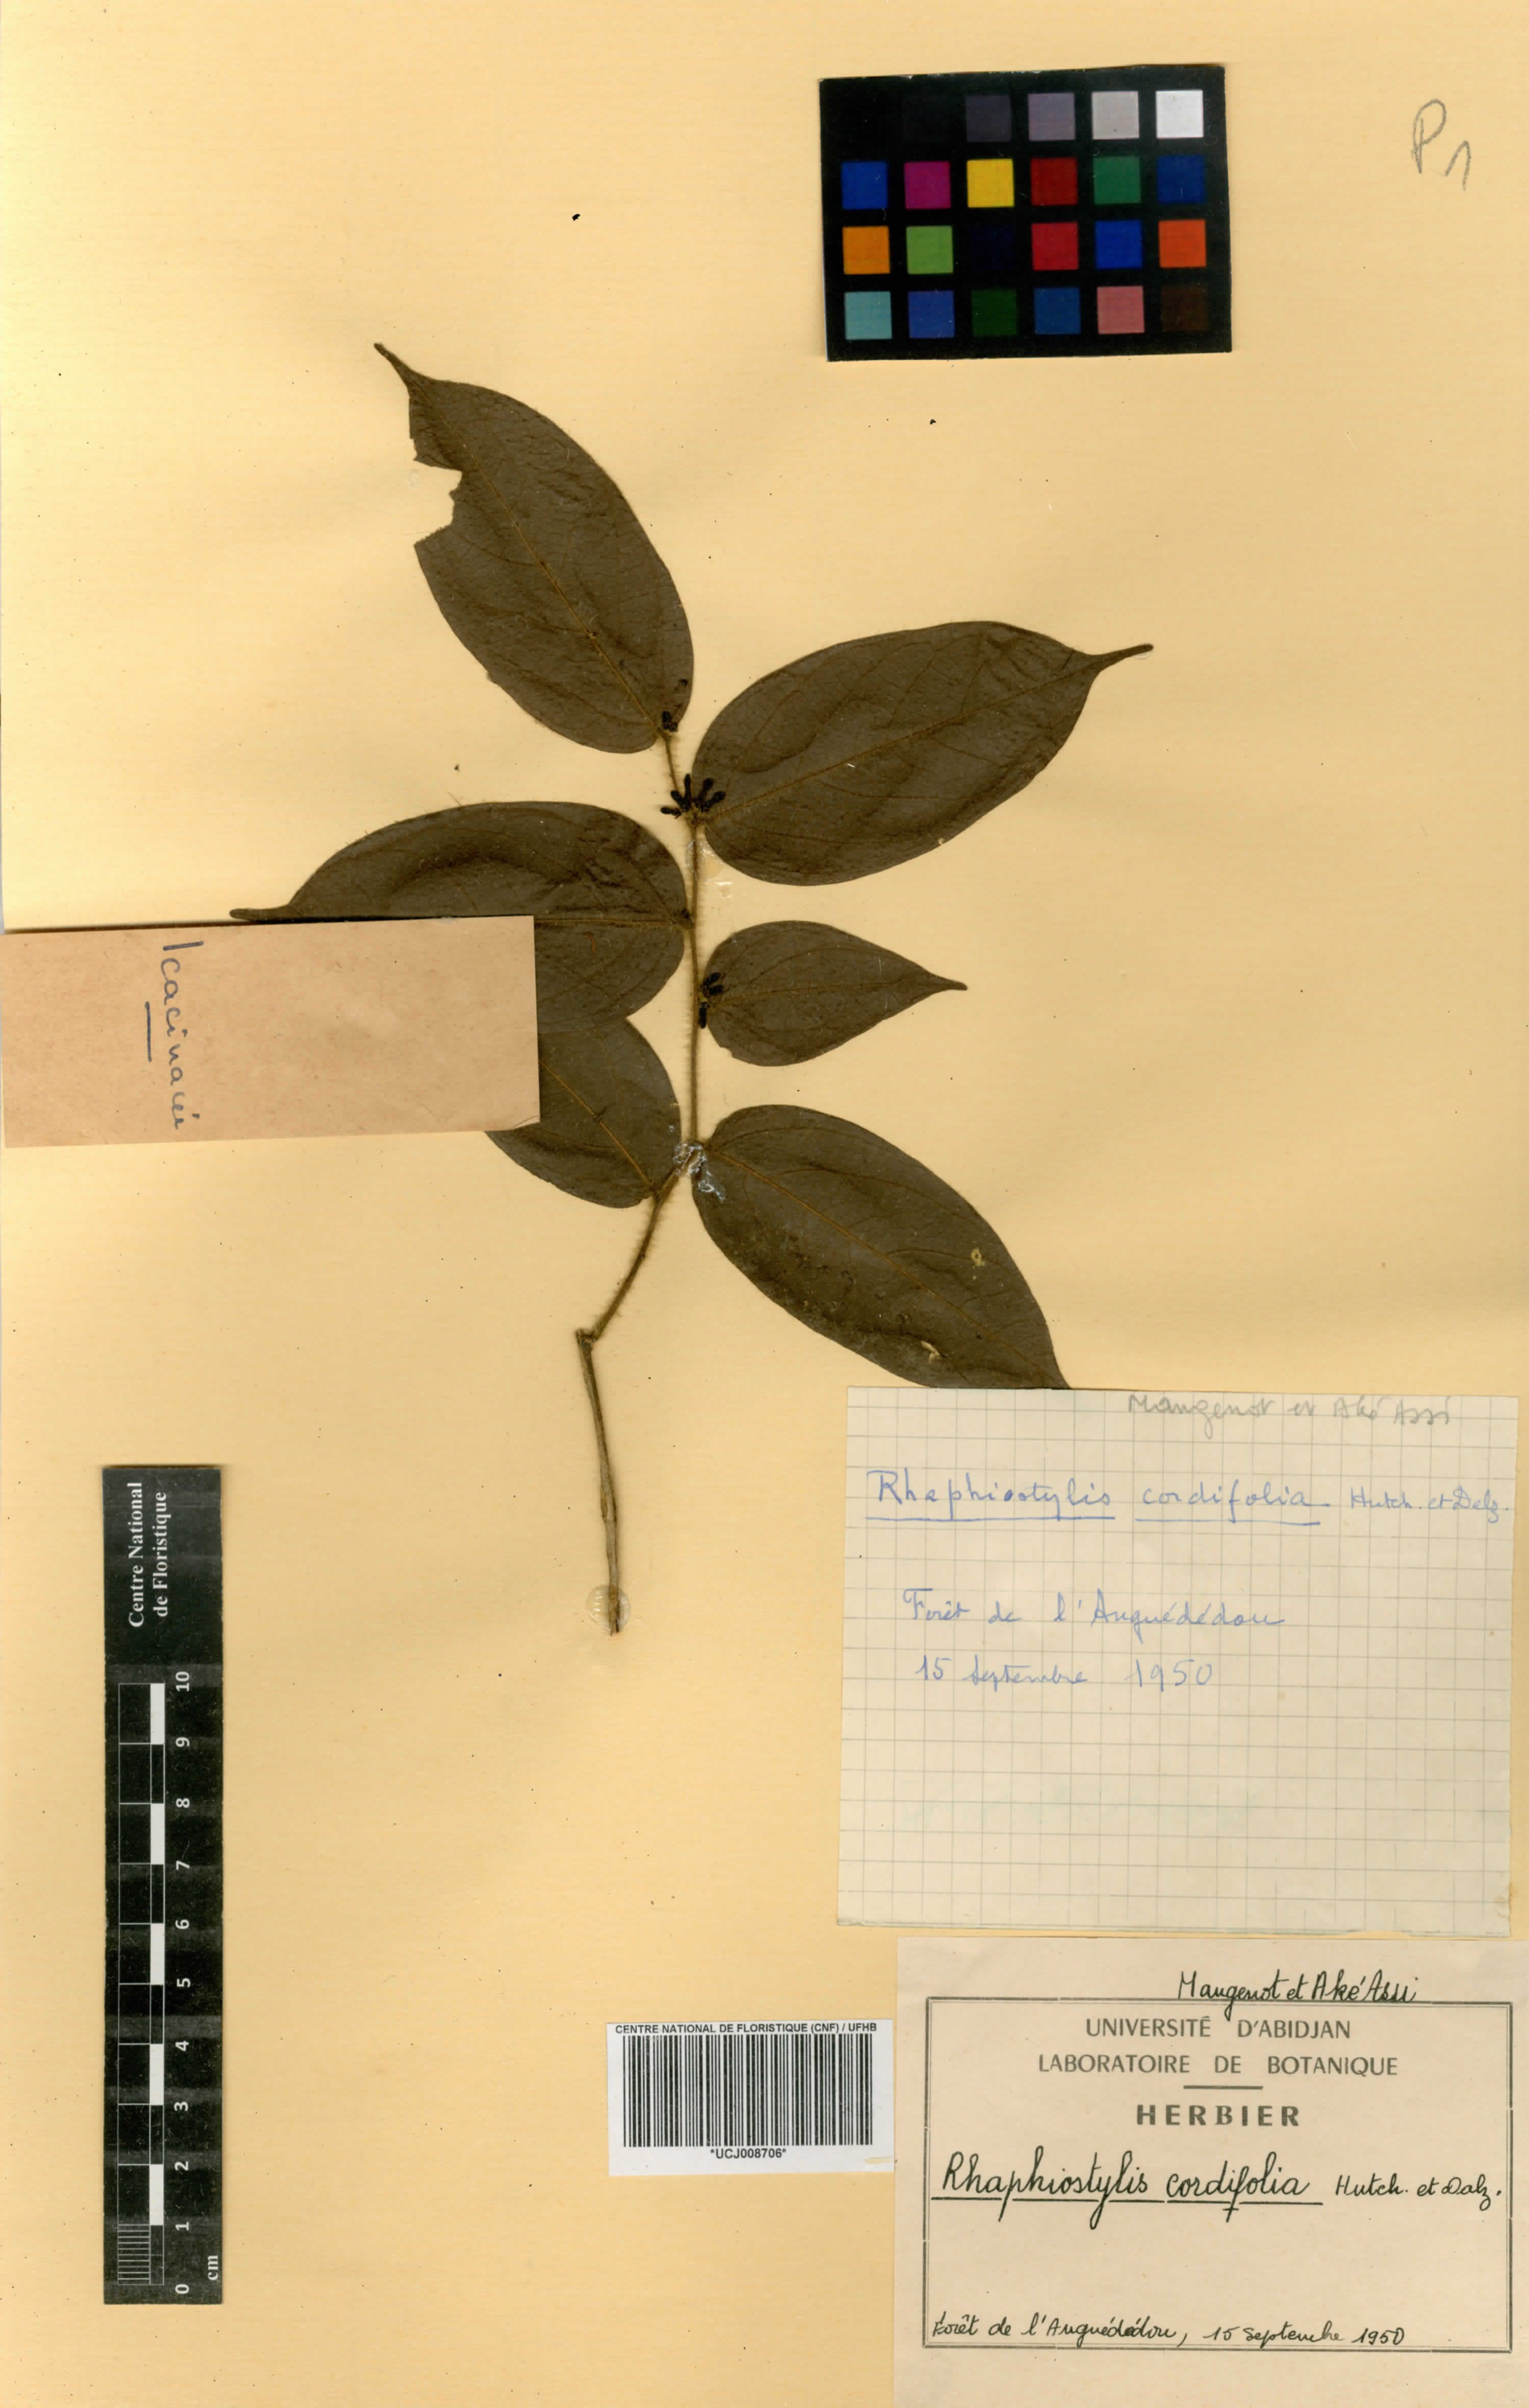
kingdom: Plantae
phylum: Tracheophyta
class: Magnoliopsida
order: Metteniusales
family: Metteniusaceae
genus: Rhaphiostylis
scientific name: Rhaphiostylis cordifolia
